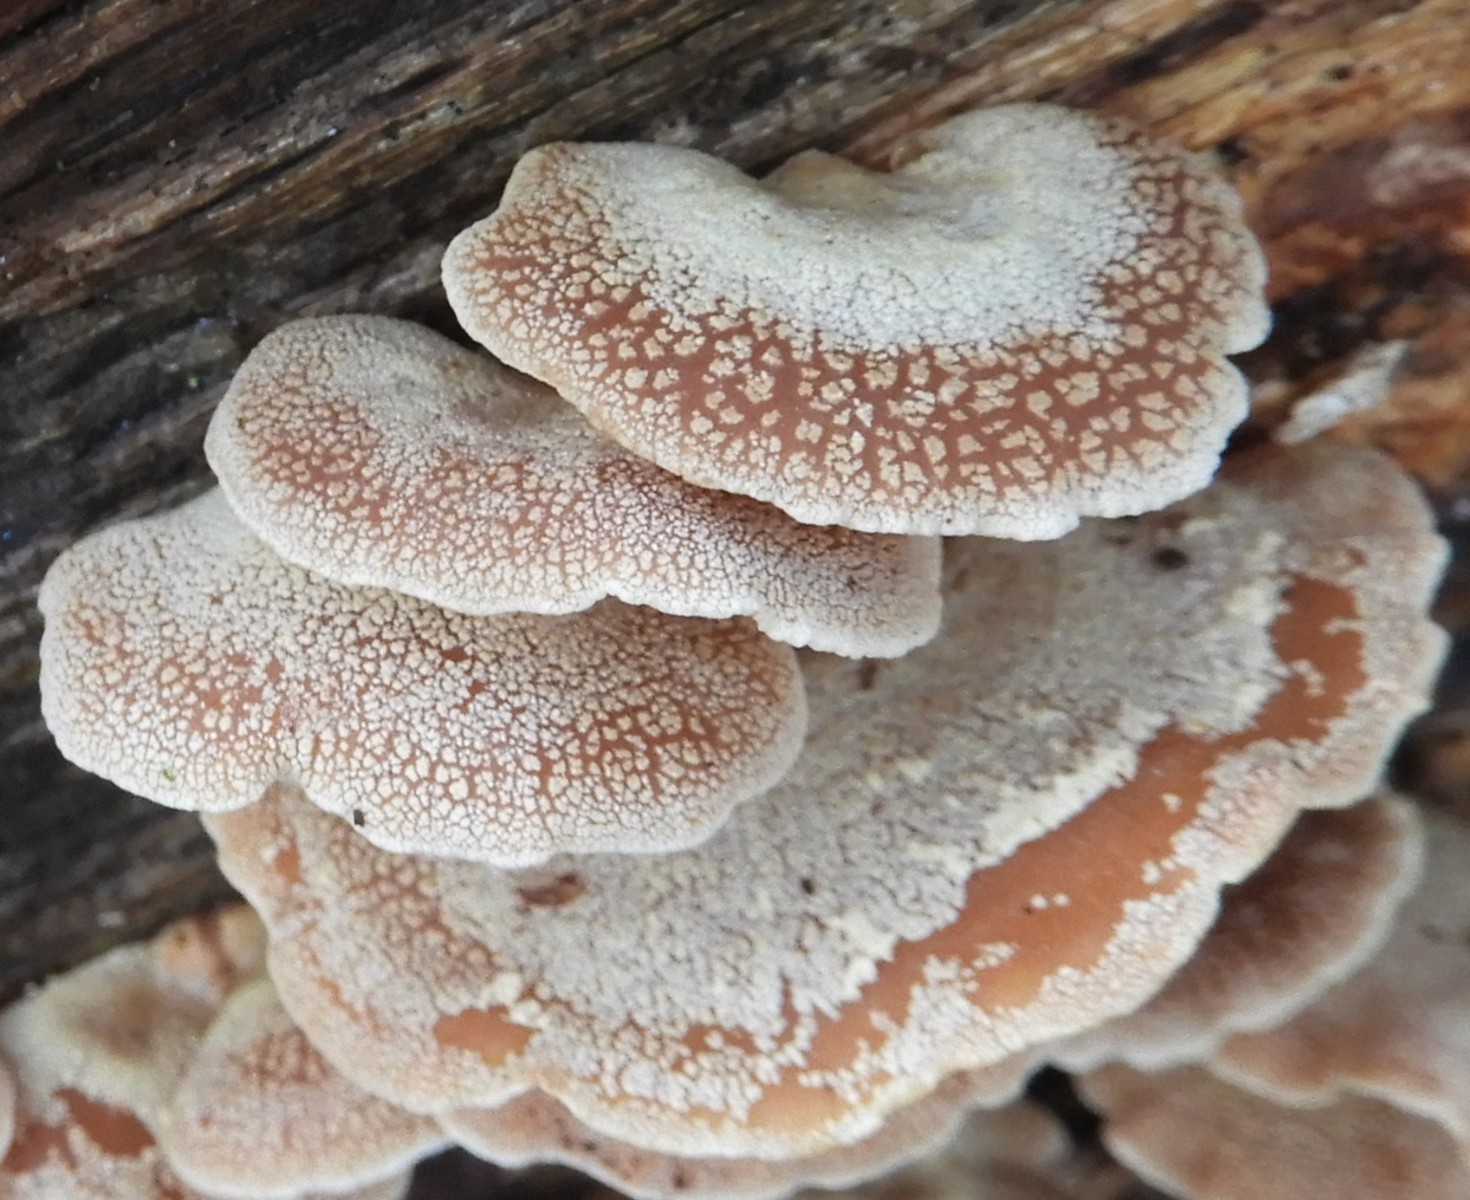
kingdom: Fungi
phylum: Basidiomycota
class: Agaricomycetes
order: Agaricales
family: Mycenaceae
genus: Panellus
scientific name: Panellus stipticus
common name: kliddet epaulethat
